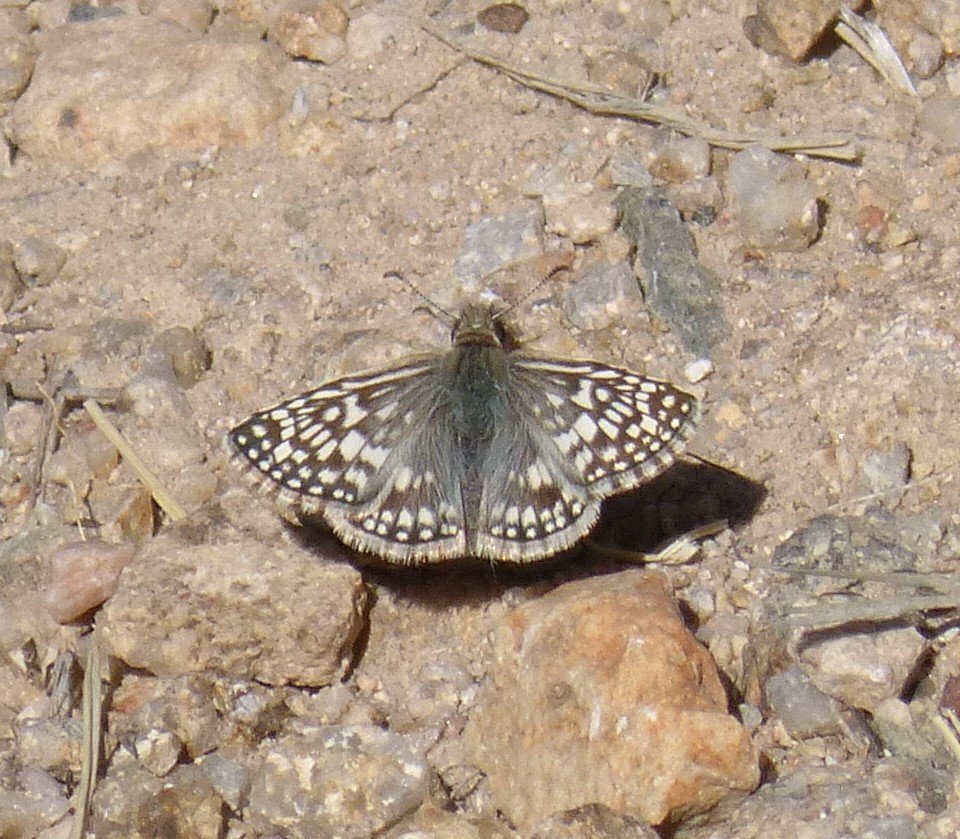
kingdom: Animalia
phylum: Arthropoda
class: Insecta
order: Lepidoptera
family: Hesperiidae
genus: Pyrgus
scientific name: Pyrgus oileus
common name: Desert Checkered-Skipper
